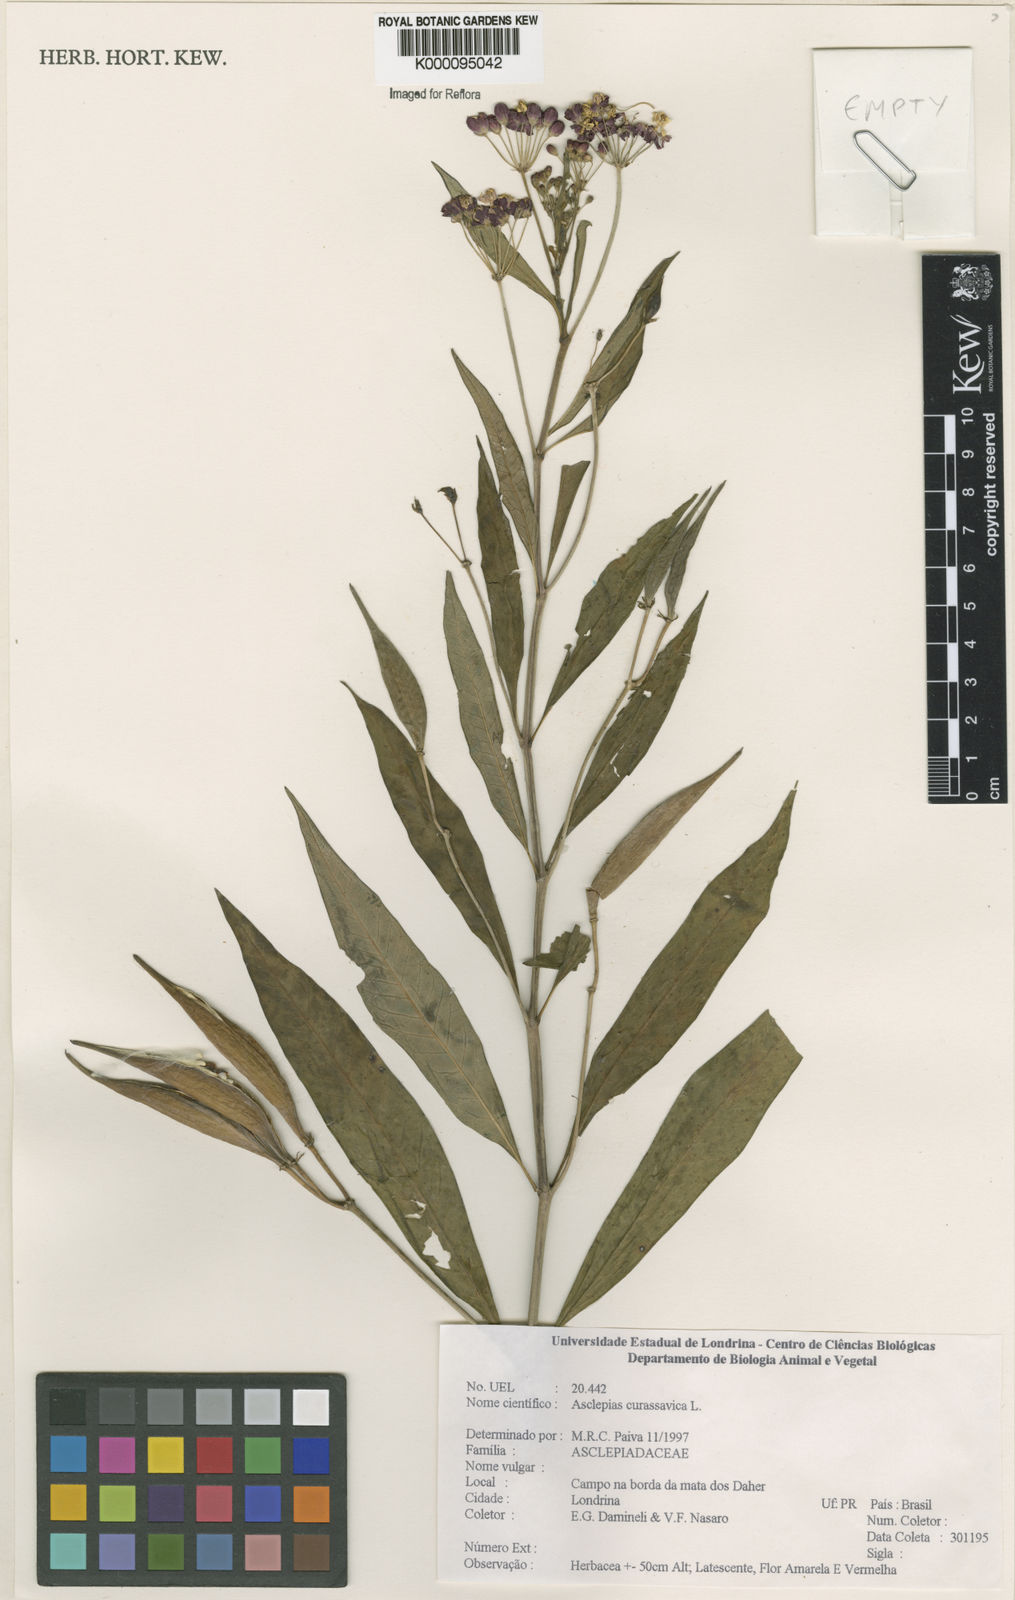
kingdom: Plantae
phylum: Tracheophyta
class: Magnoliopsida
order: Gentianales
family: Apocynaceae
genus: Asclepias
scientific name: Asclepias curassavica
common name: Bloodflower
